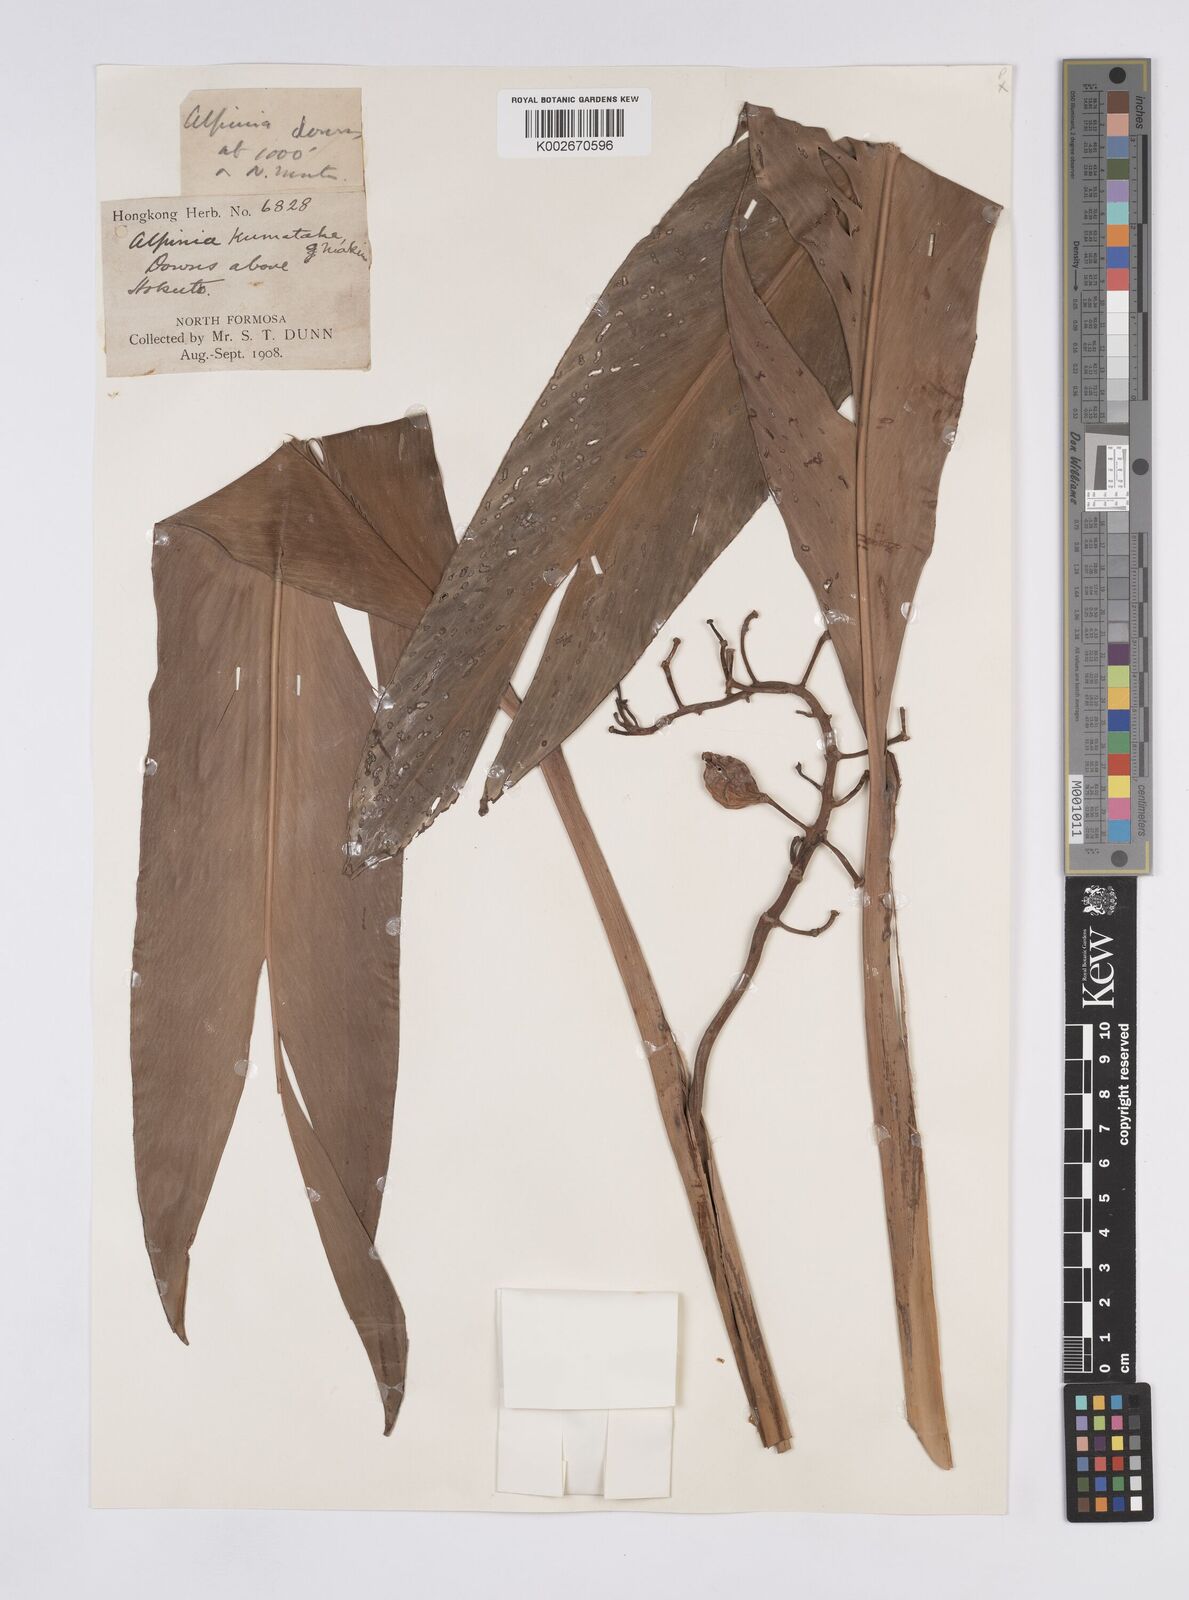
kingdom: Plantae
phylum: Tracheophyta
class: Liliopsida
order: Zingiberales
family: Zingiberaceae
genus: Alpinia
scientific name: Alpinia intermedia
